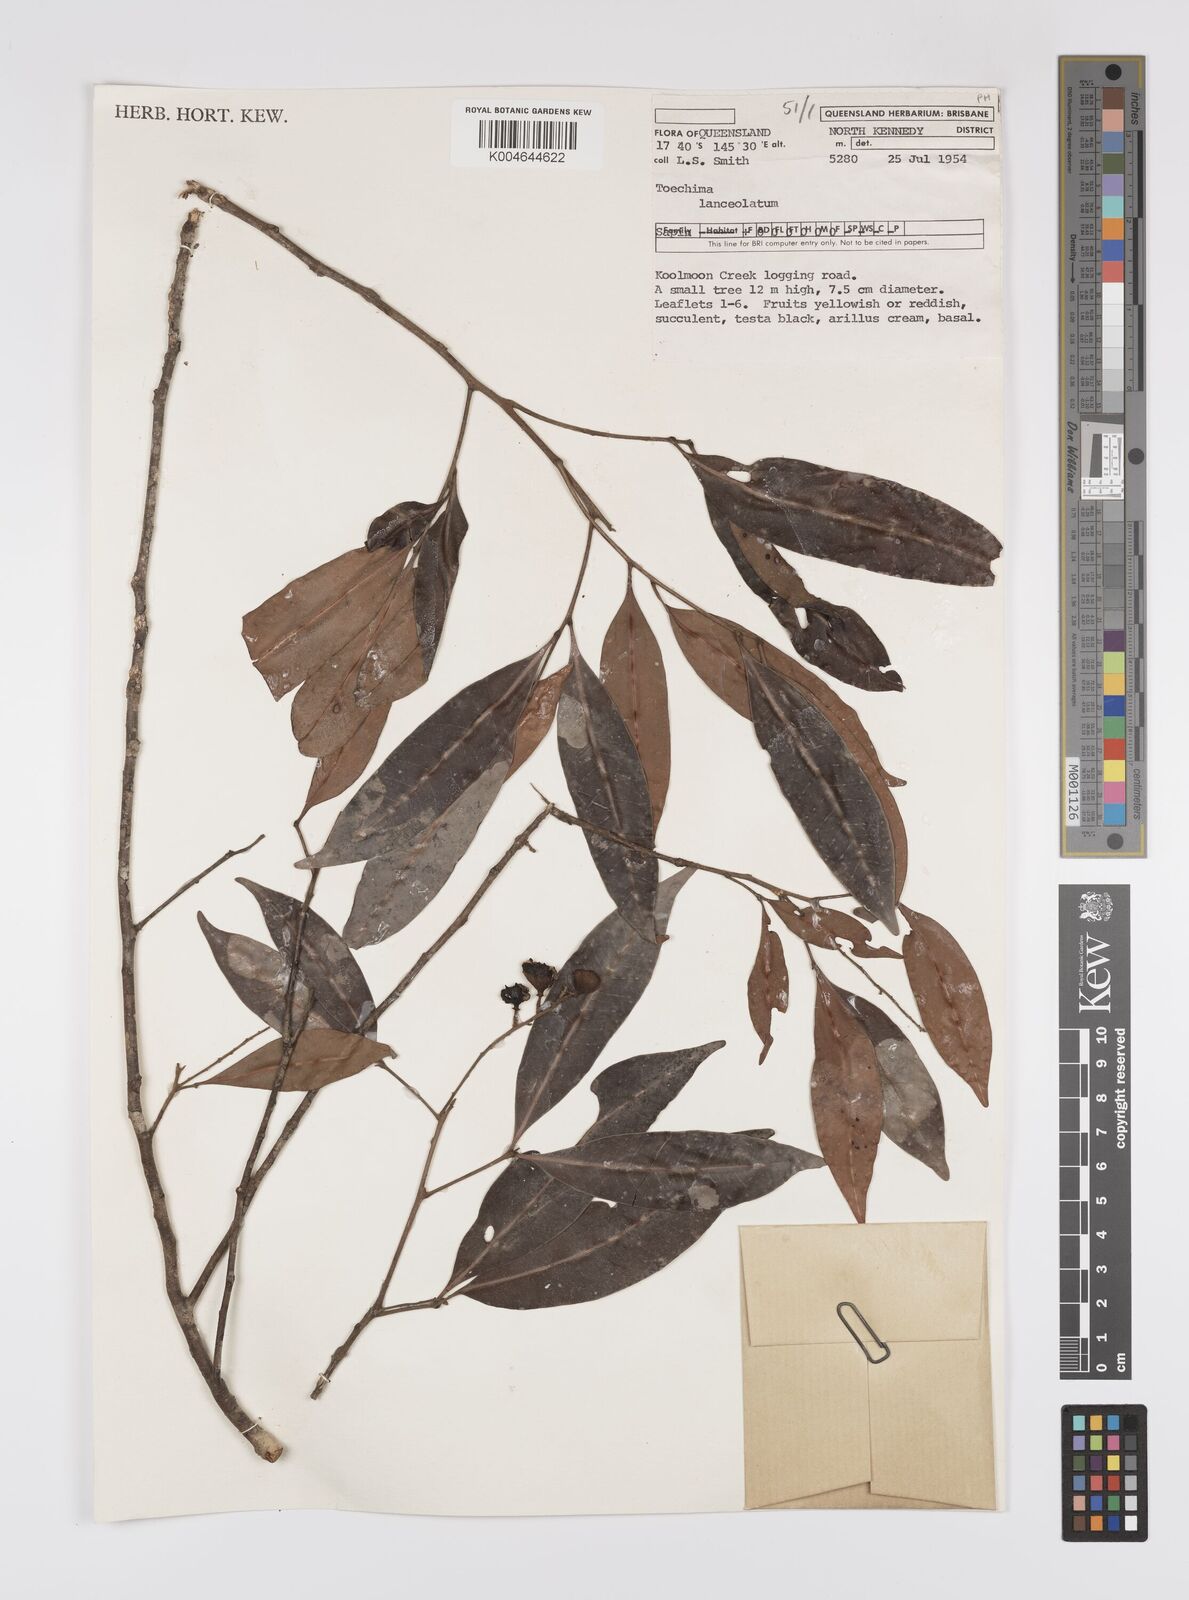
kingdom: Plantae
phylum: Tracheophyta
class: Magnoliopsida
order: Sapindales
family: Sapindaceae
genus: Sarcotoechia
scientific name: Sarcotoechia lanceolata
